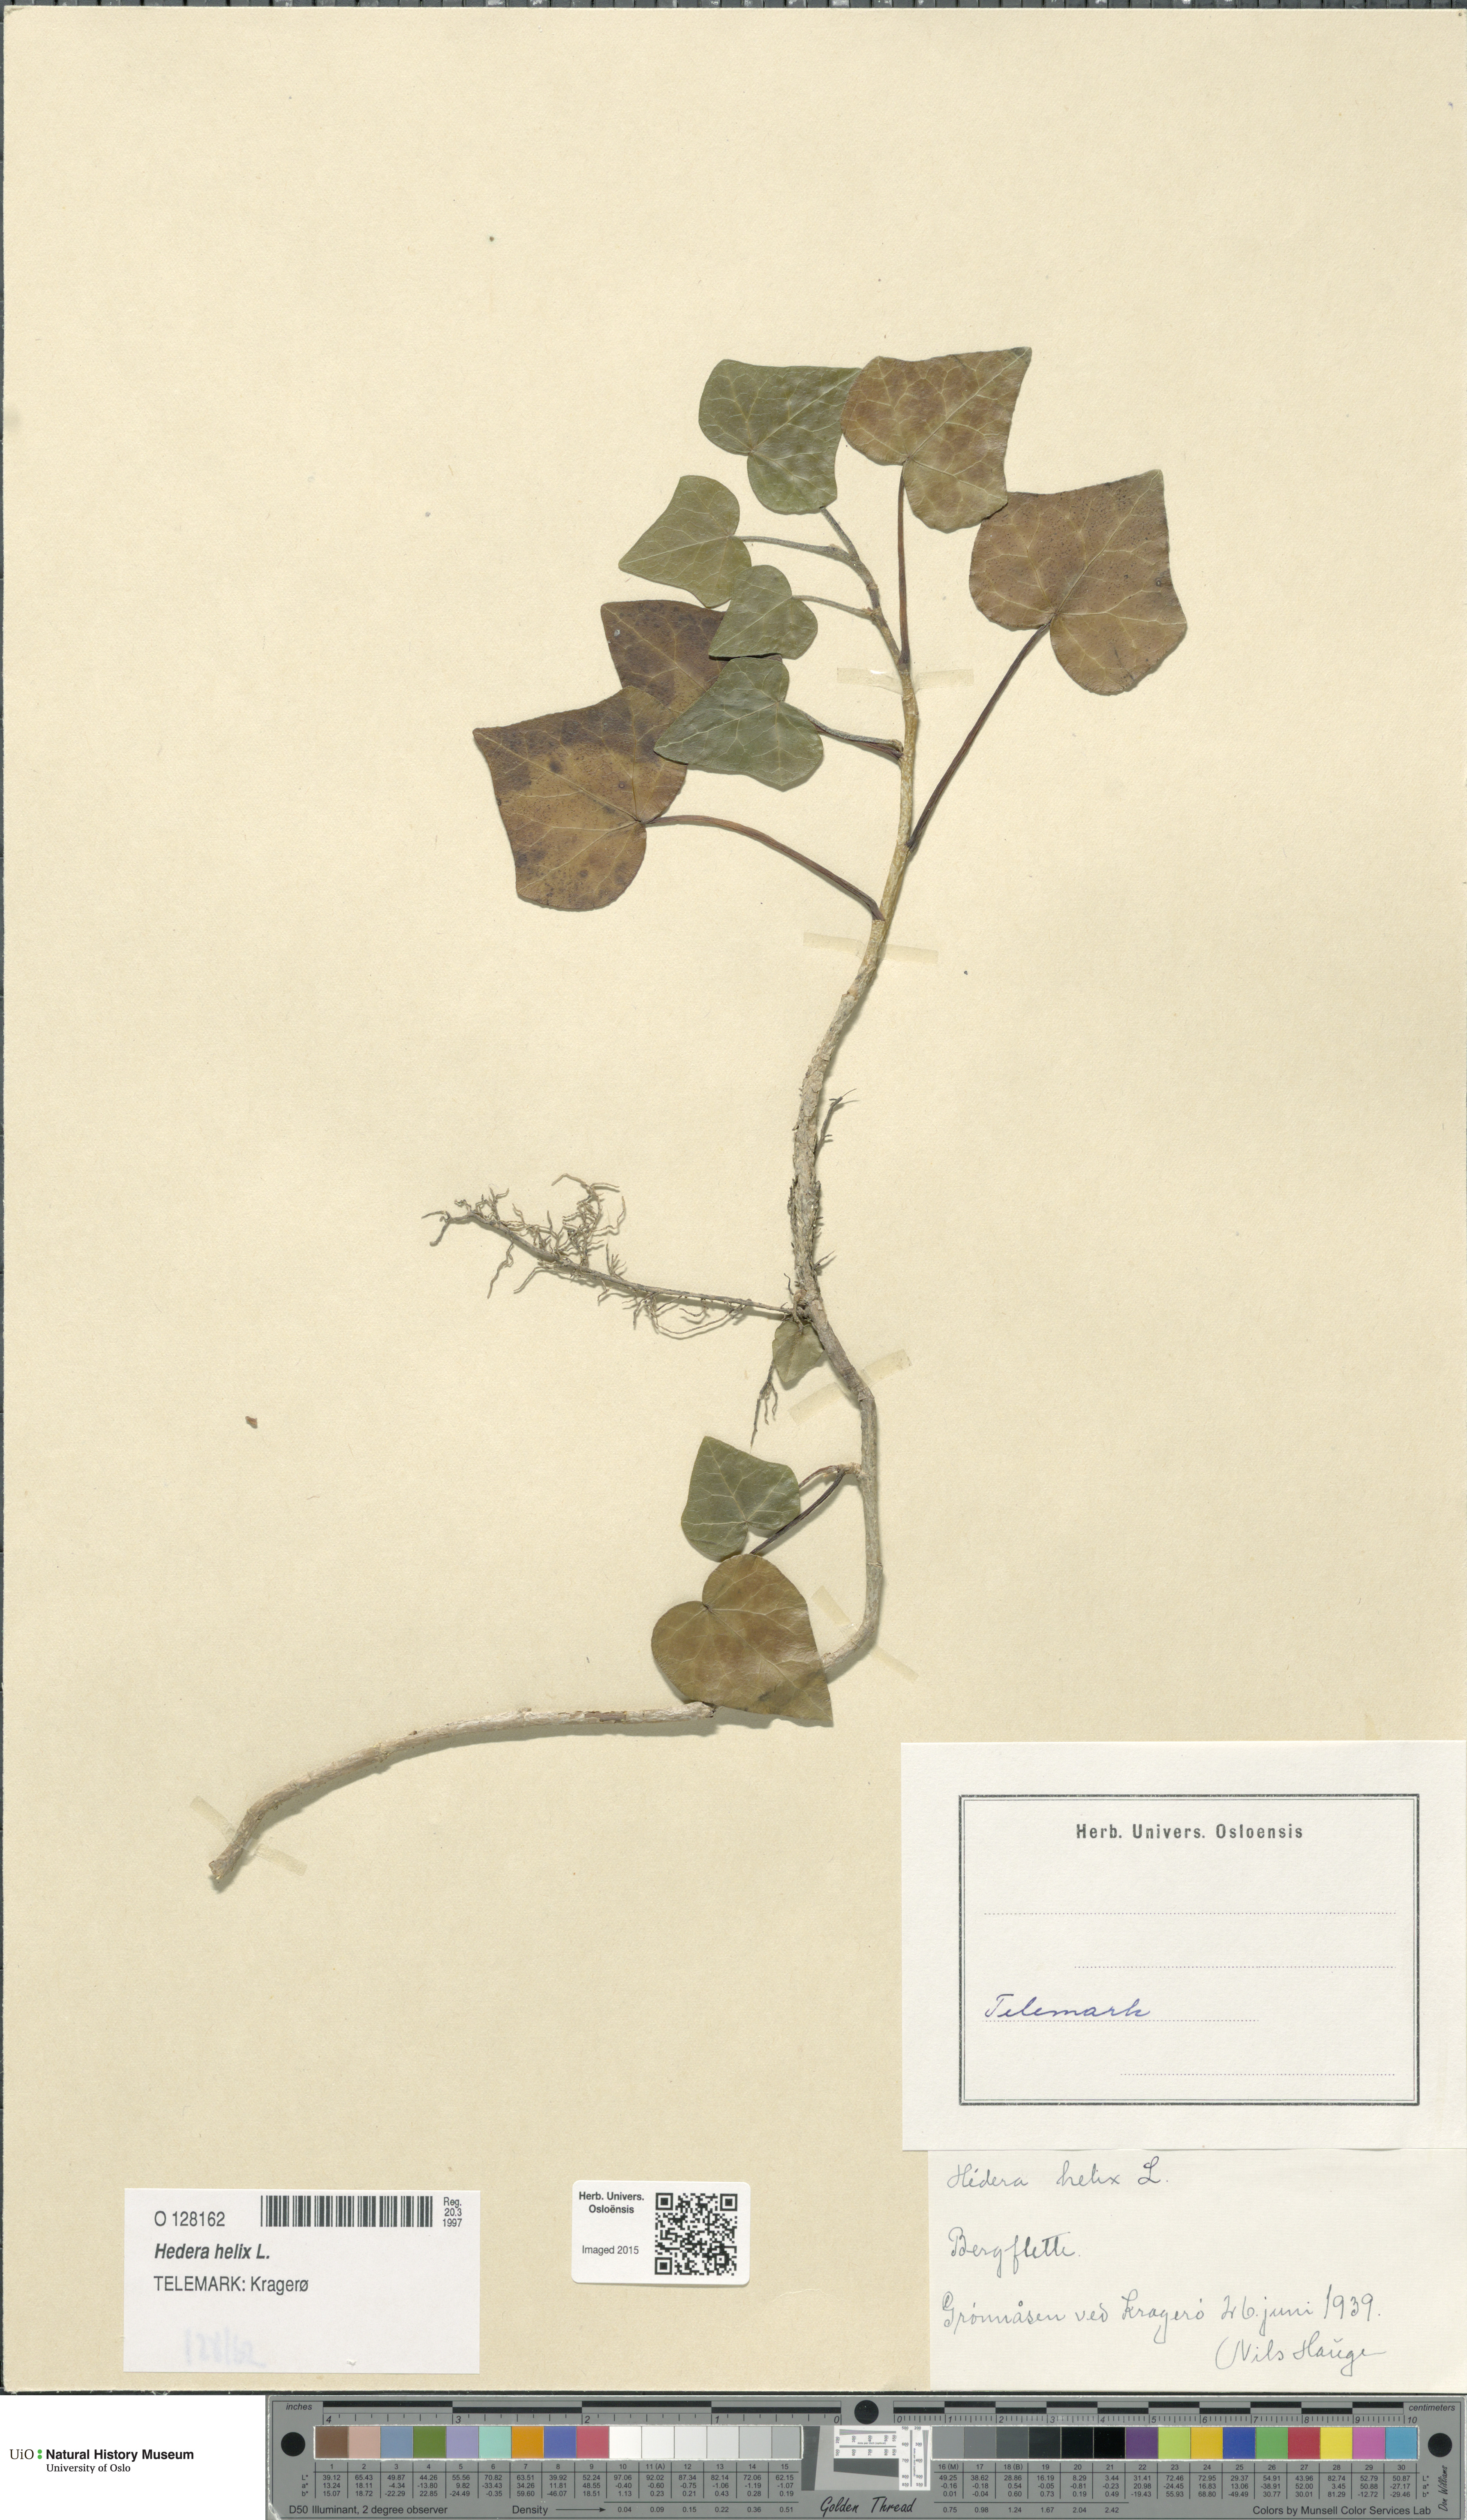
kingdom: Plantae
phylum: Tracheophyta
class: Magnoliopsida
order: Apiales
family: Araliaceae
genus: Hedera
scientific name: Hedera helix
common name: Ivy
